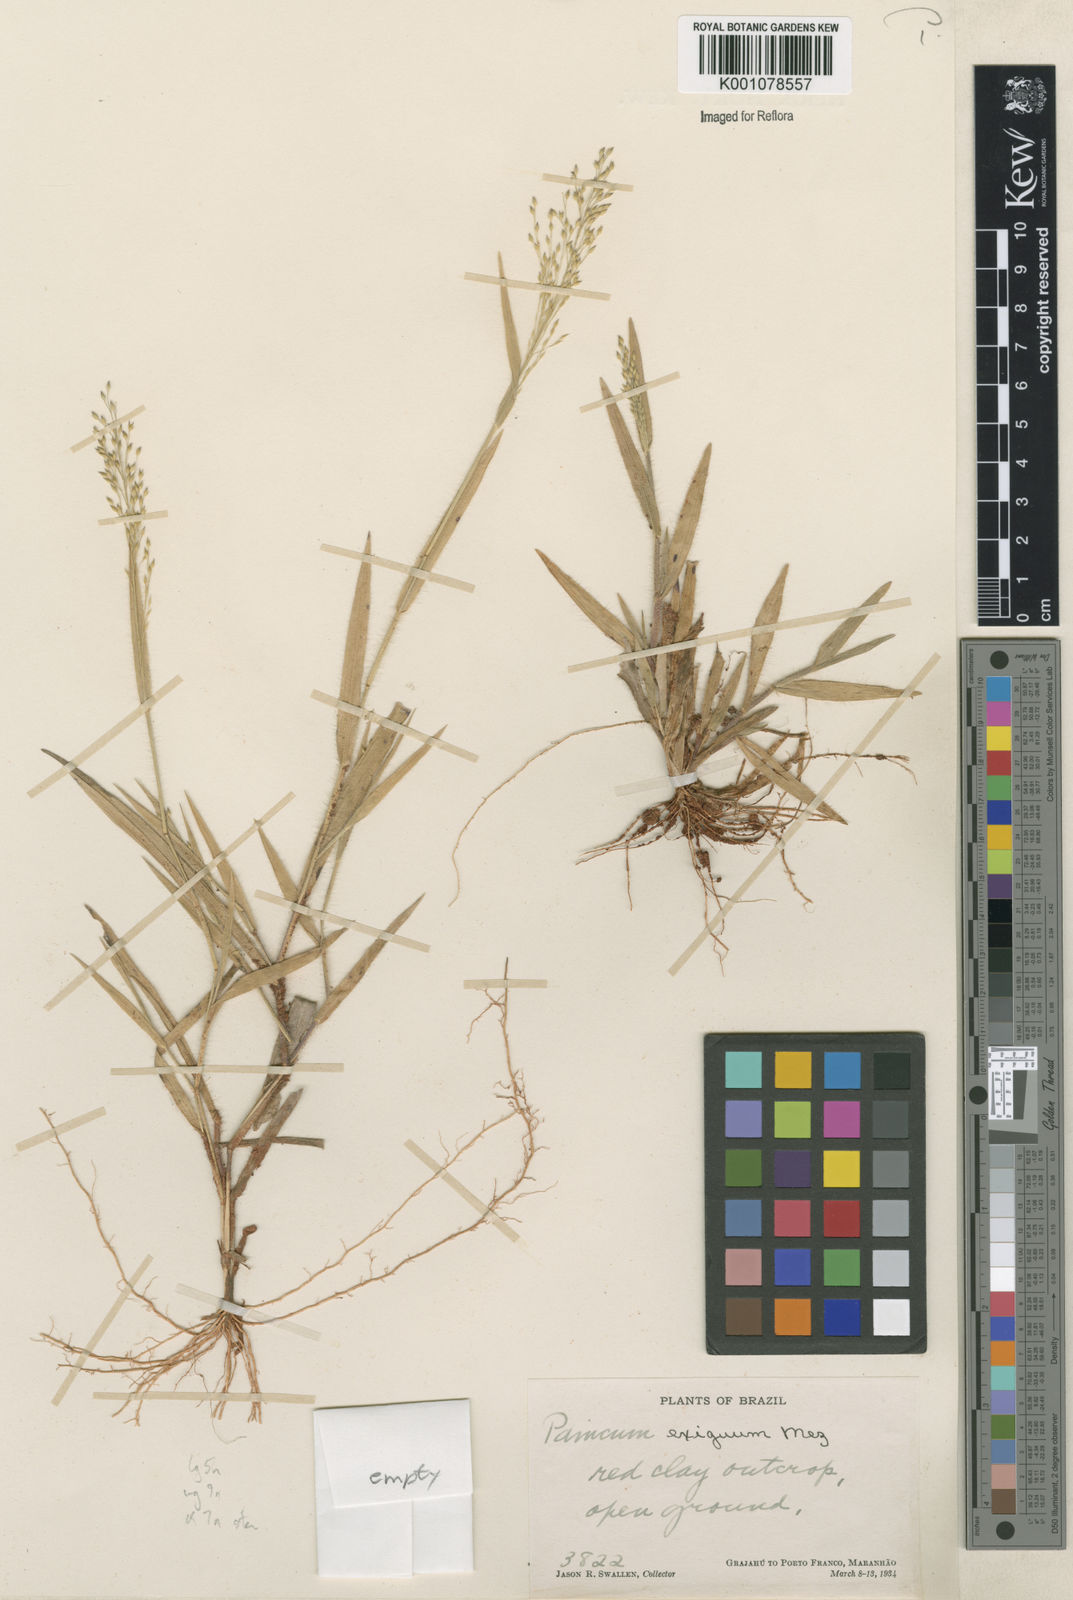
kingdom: Plantae
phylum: Tracheophyta
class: Liliopsida
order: Poales
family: Poaceae
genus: Panicum
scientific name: Panicum exiguum
